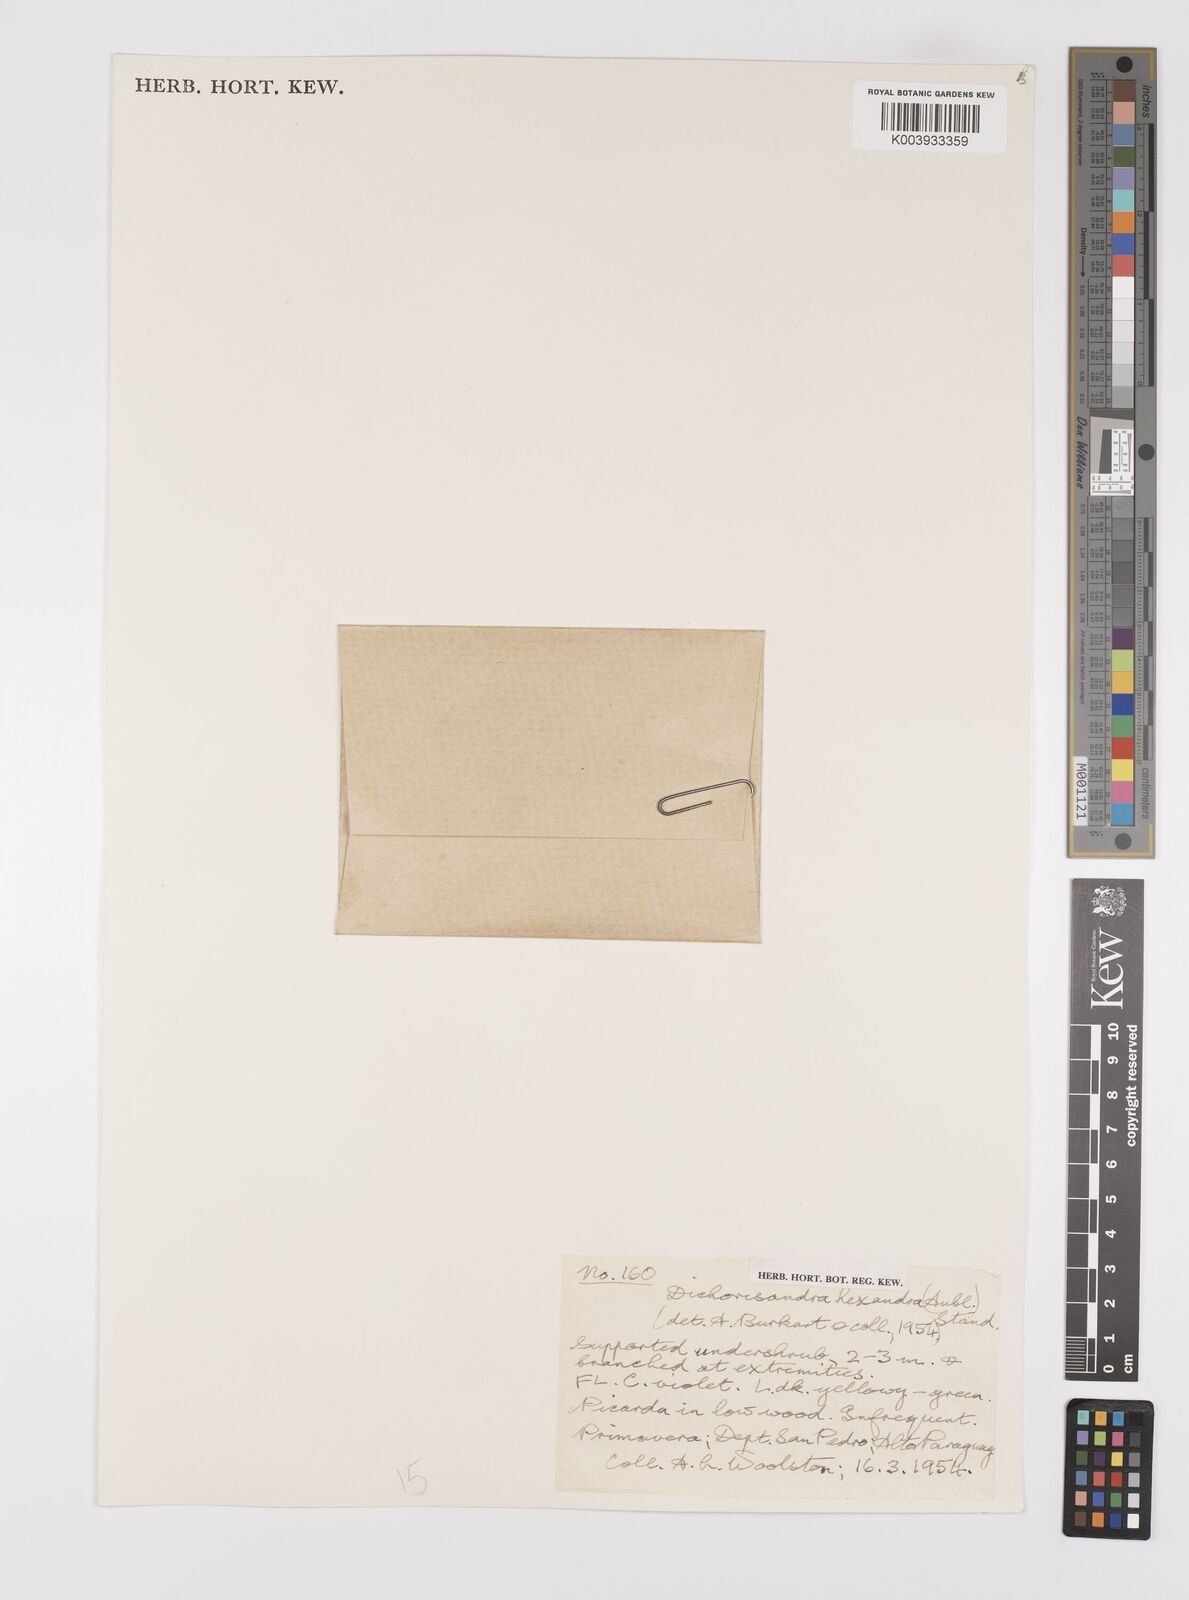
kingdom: Plantae
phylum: Tracheophyta
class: Liliopsida
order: Commelinales
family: Commelinaceae
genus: Dichorisandra
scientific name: Dichorisandra hexandra
